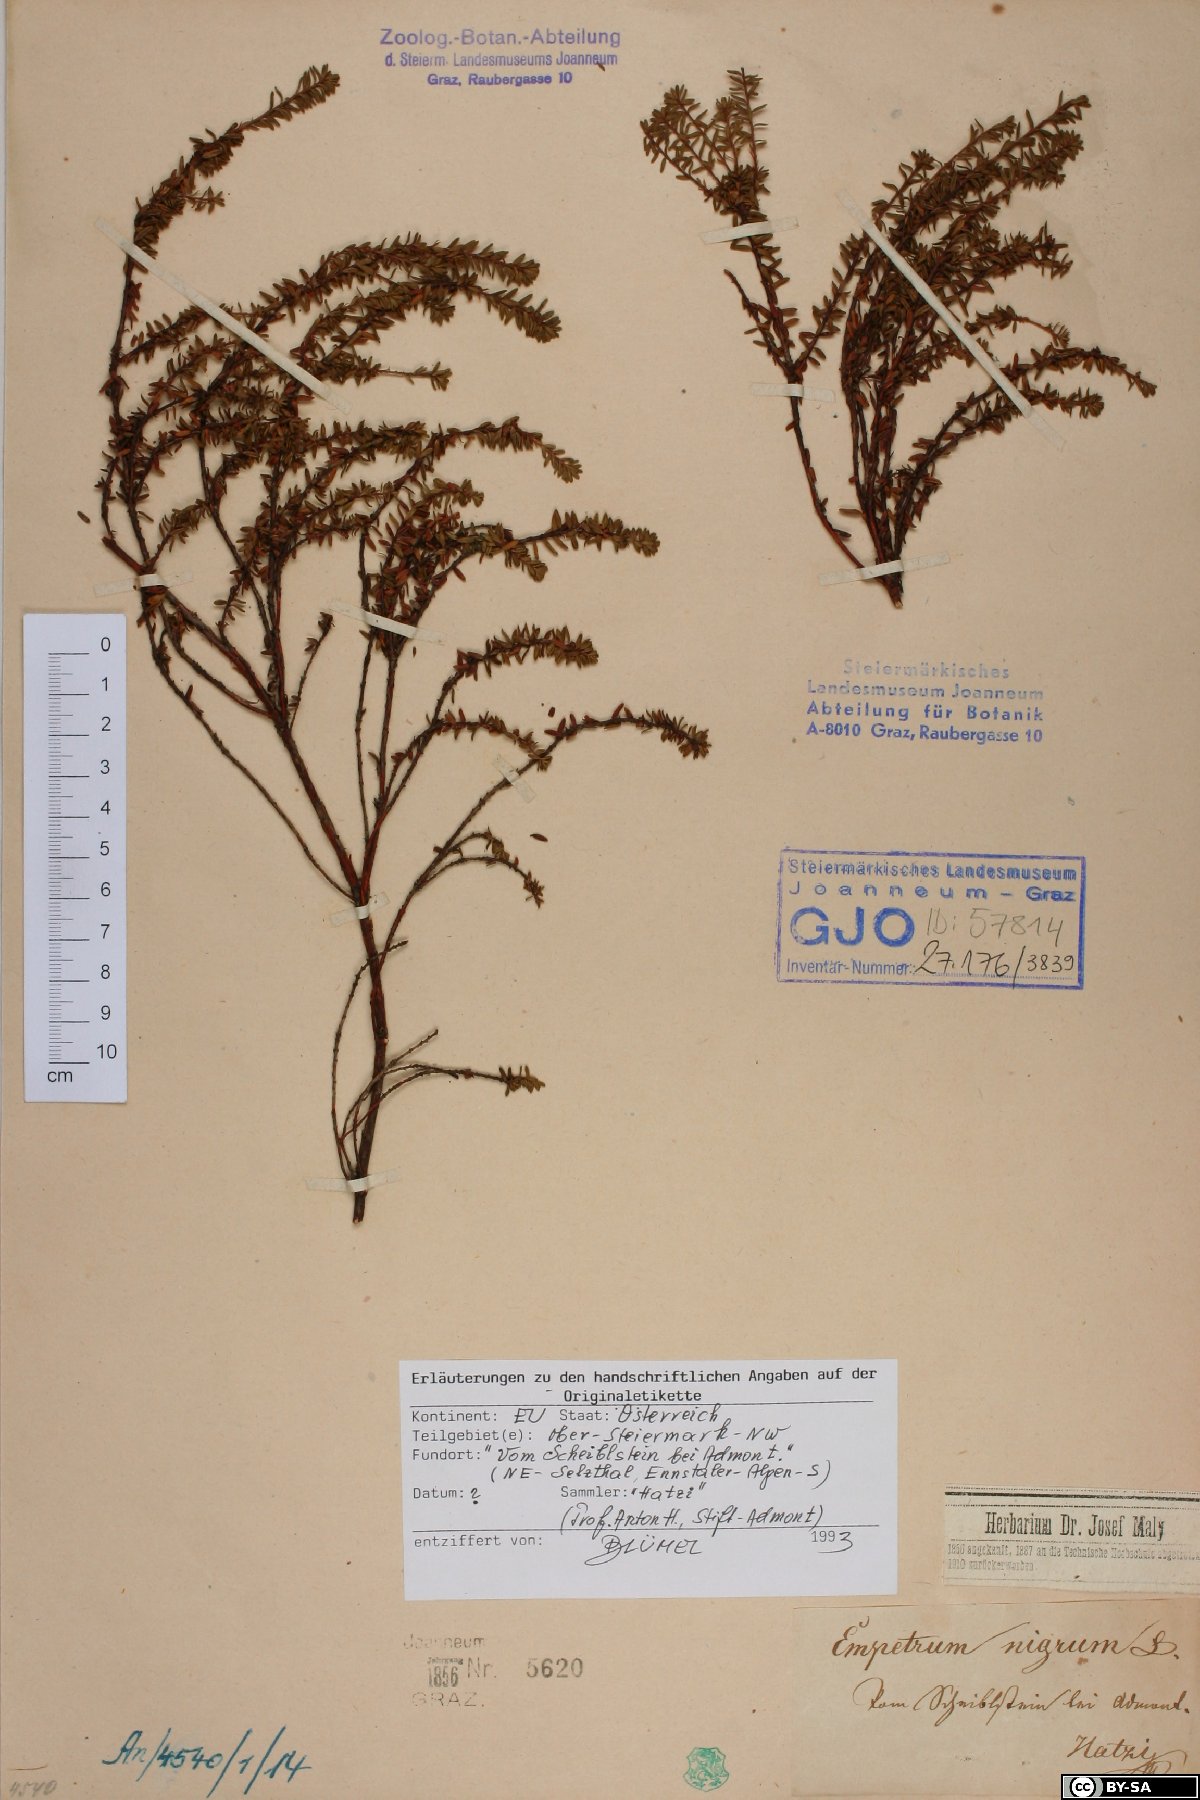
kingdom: Plantae
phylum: Tracheophyta
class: Magnoliopsida
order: Ericales
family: Ericaceae
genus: Empetrum
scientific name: Empetrum nigrum
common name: Black crowberry
